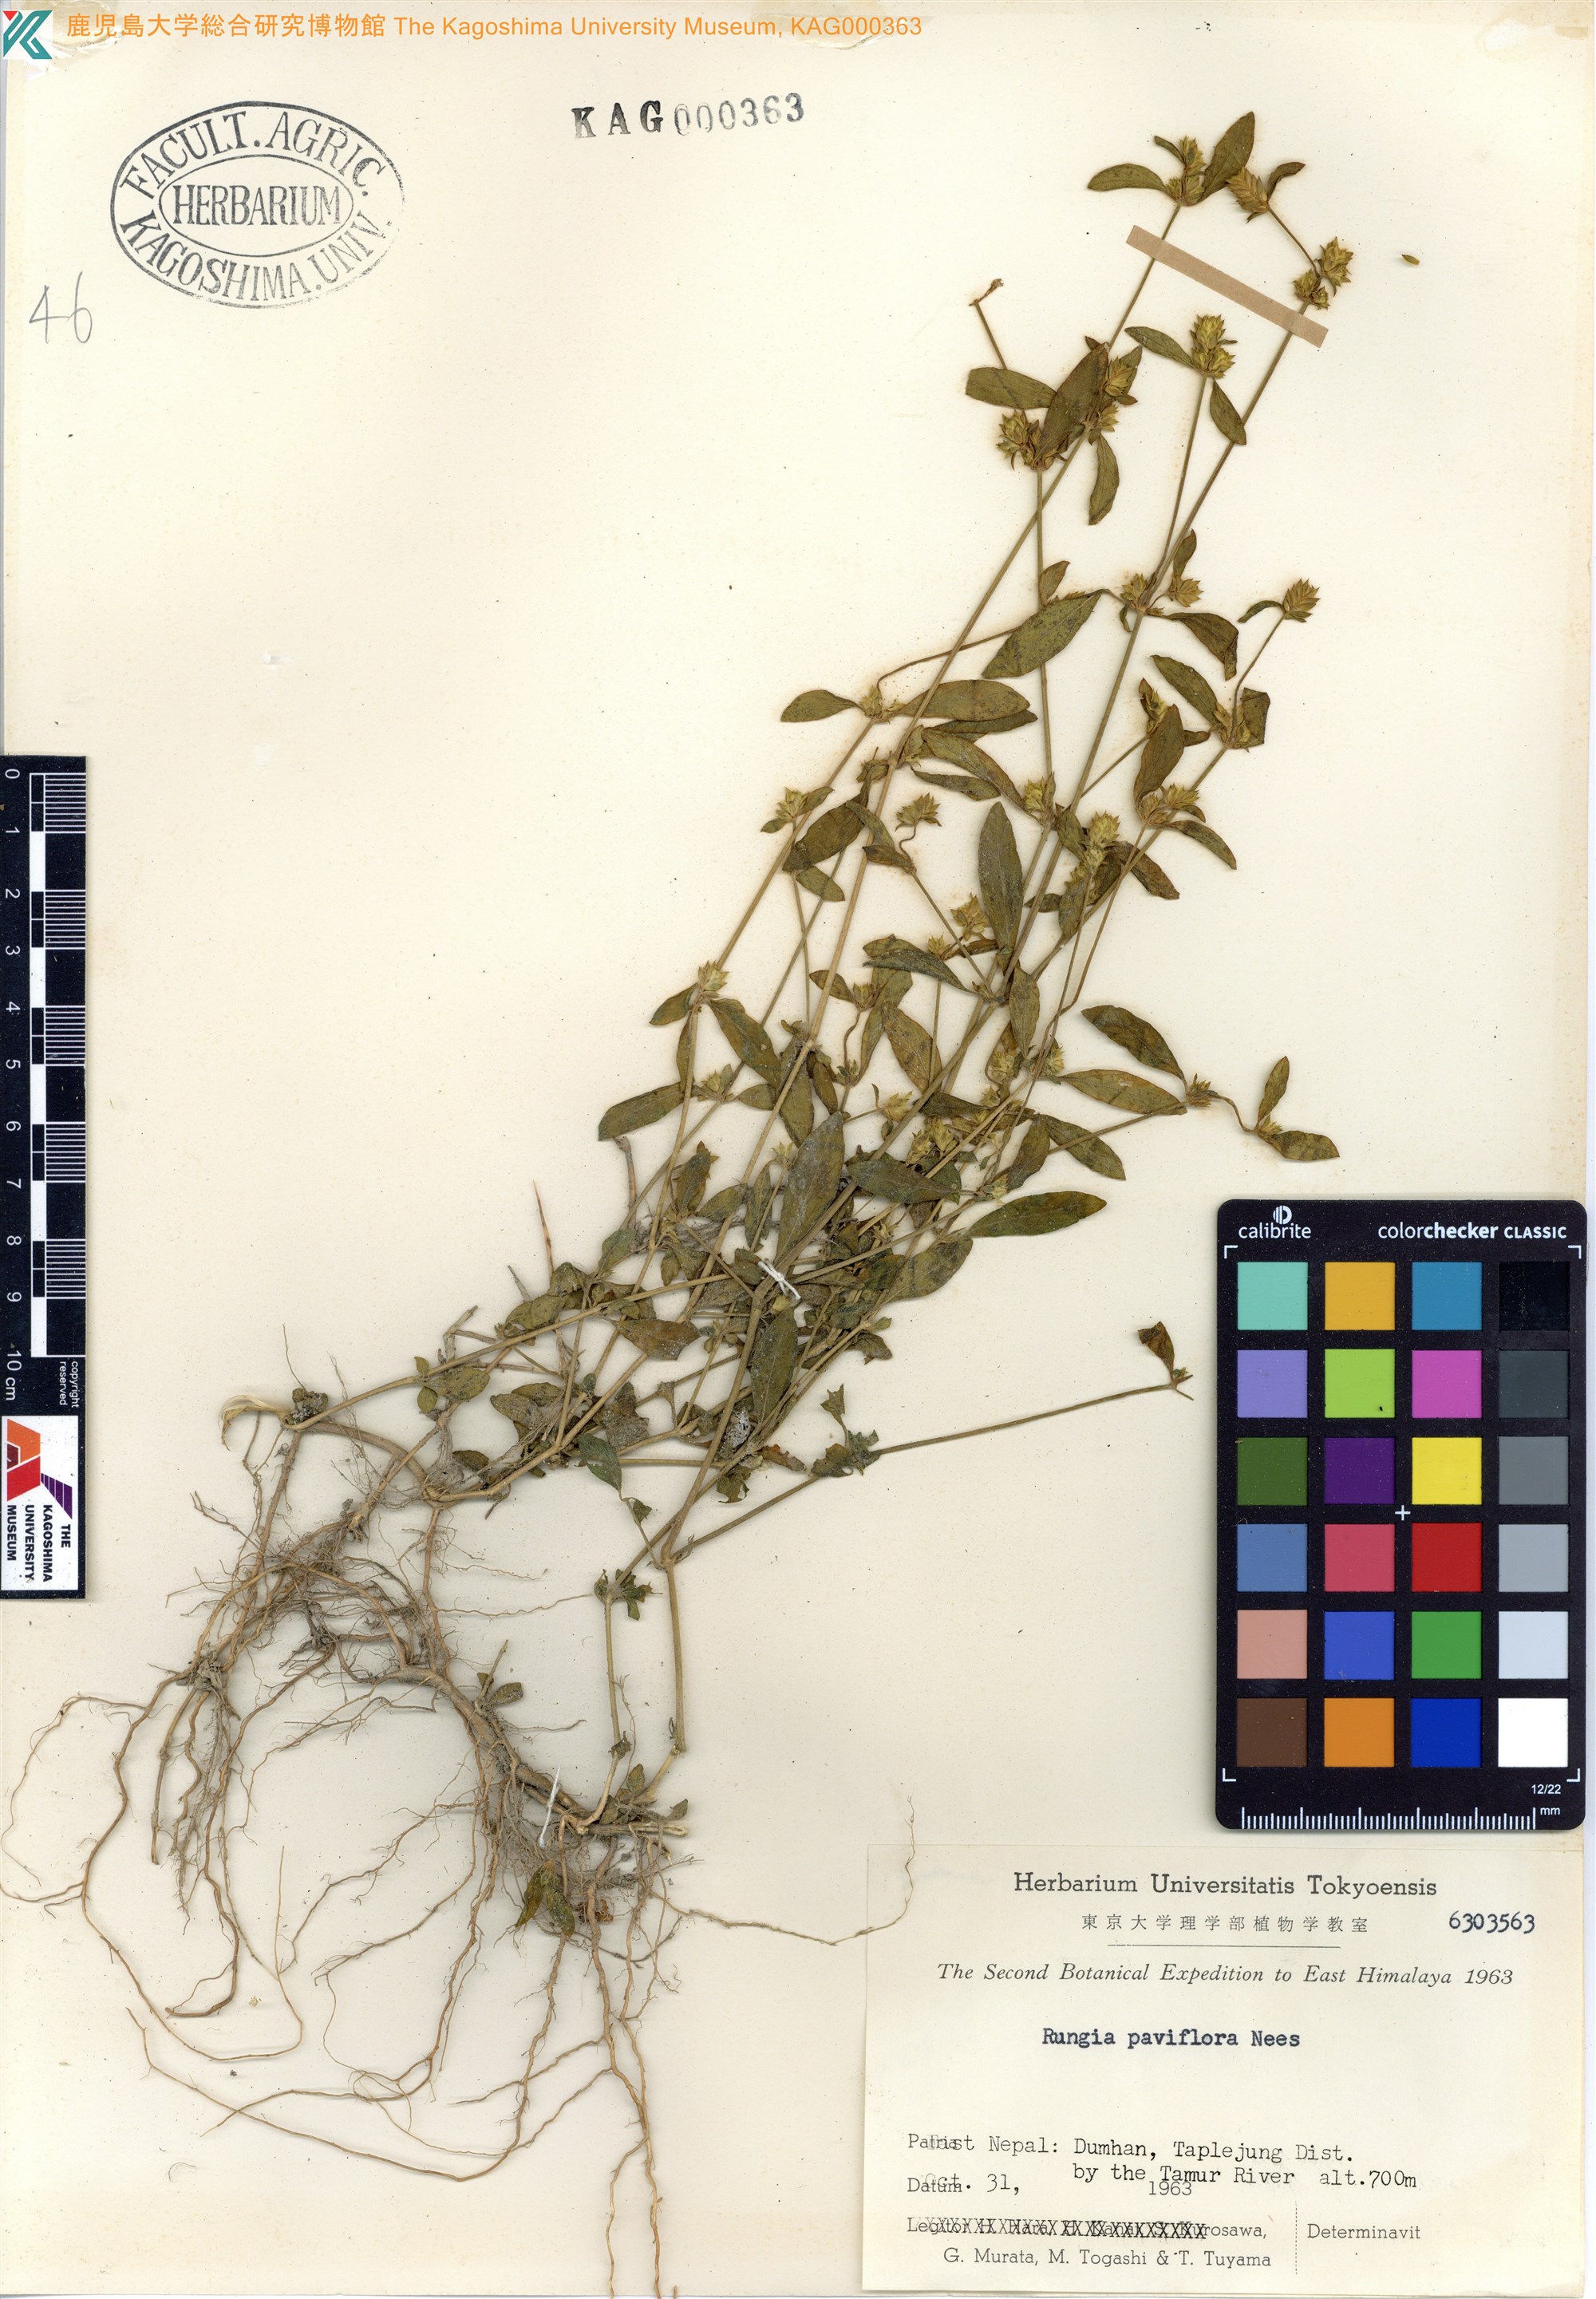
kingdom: Plantae
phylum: Tracheophyta
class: Magnoliopsida
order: Lamiales
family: Acanthaceae
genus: Rungia
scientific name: Rungia
